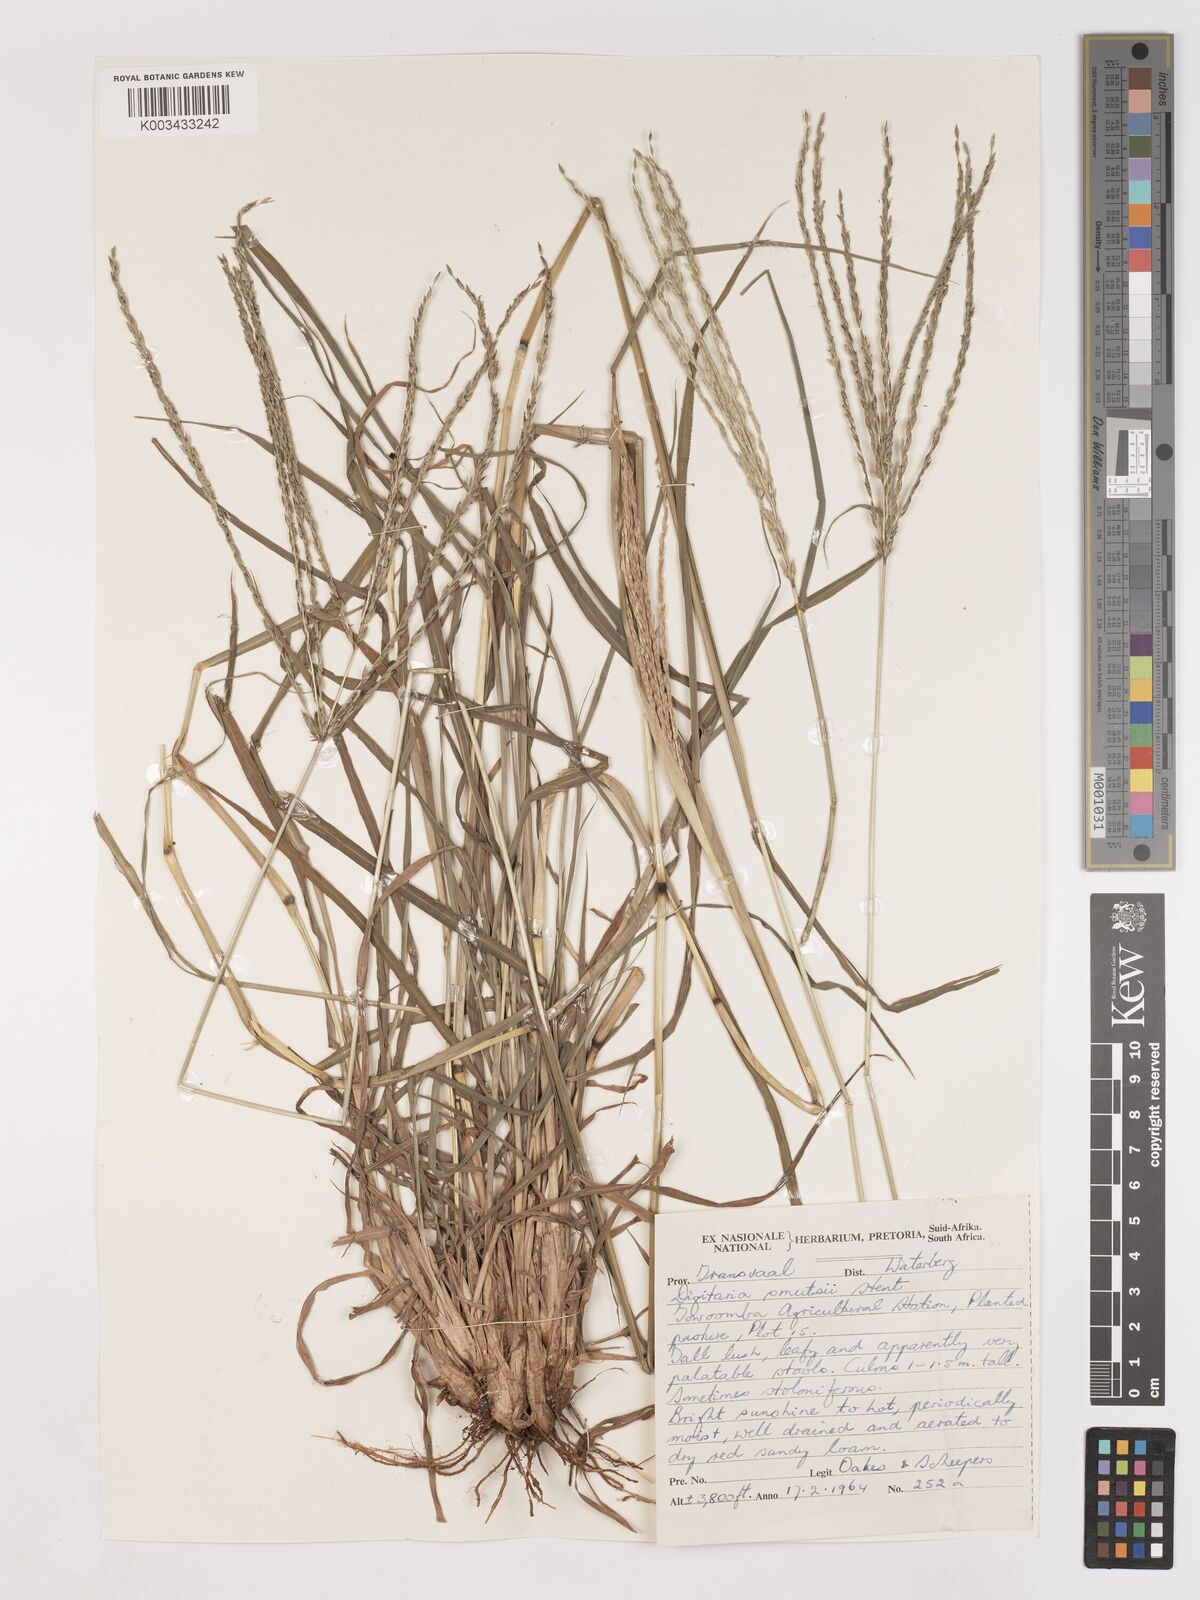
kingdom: Plantae
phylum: Tracheophyta
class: Liliopsida
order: Poales
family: Poaceae
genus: Digitaria
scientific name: Digitaria eriantha
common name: Digitgrass
